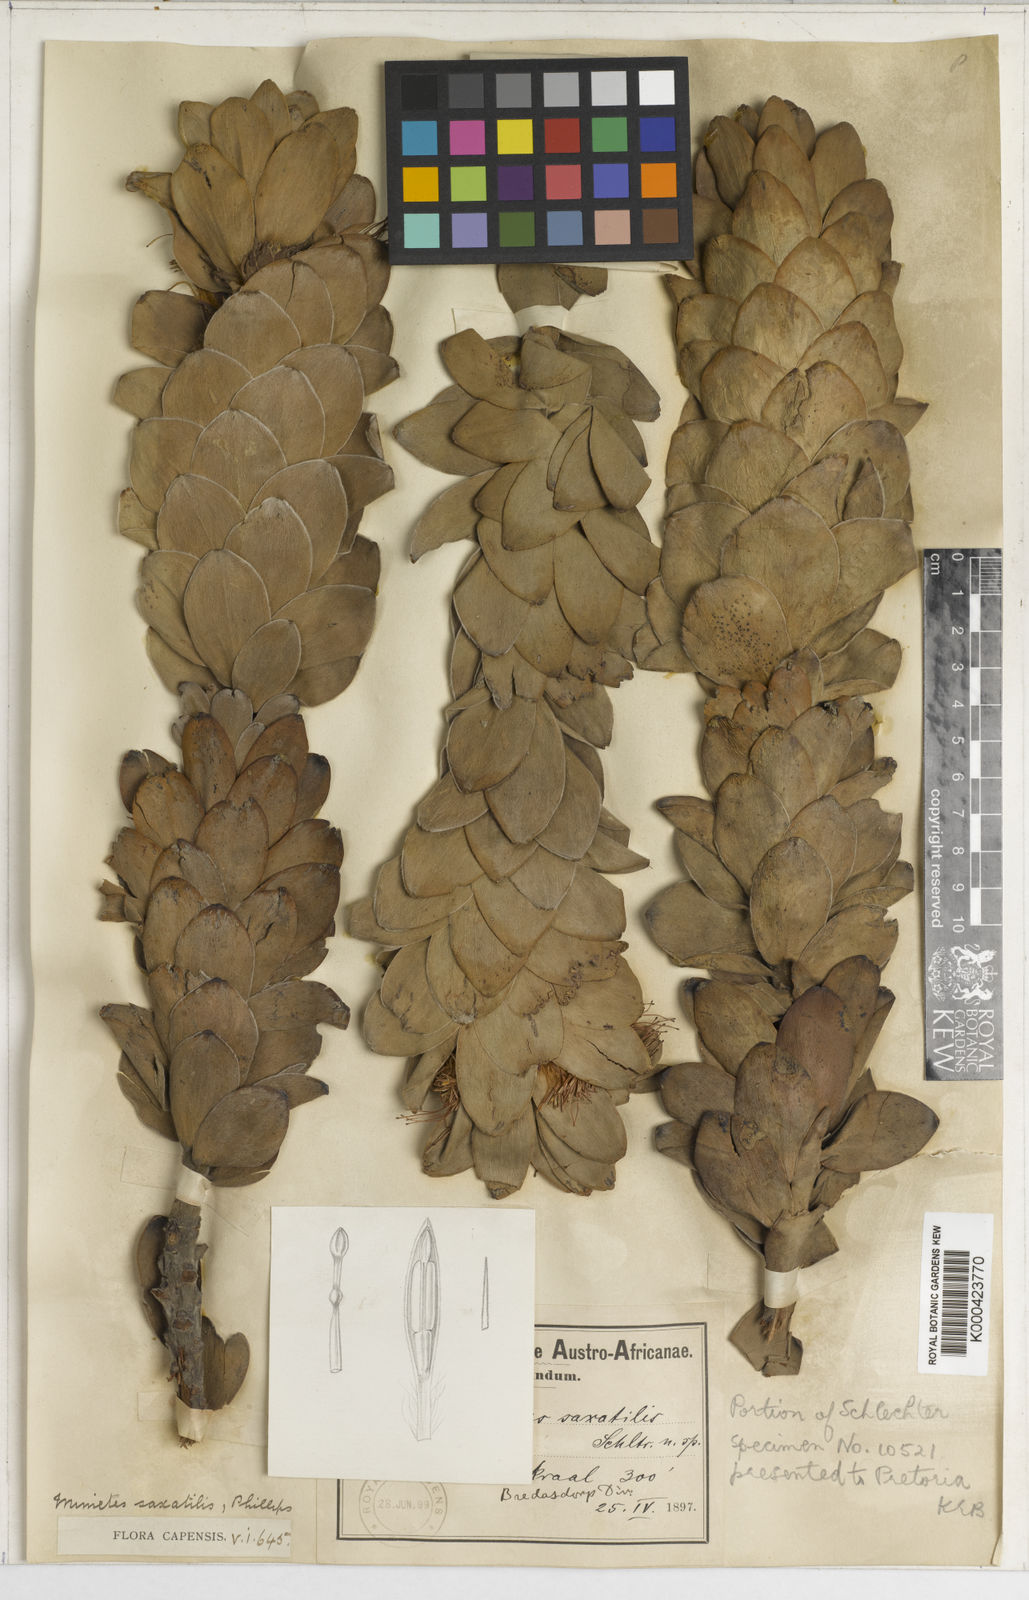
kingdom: Plantae
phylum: Tracheophyta
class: Magnoliopsida
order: Proteales
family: Proteaceae
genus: Mimetes
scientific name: Mimetes saxatilis
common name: Limestone pagoda
